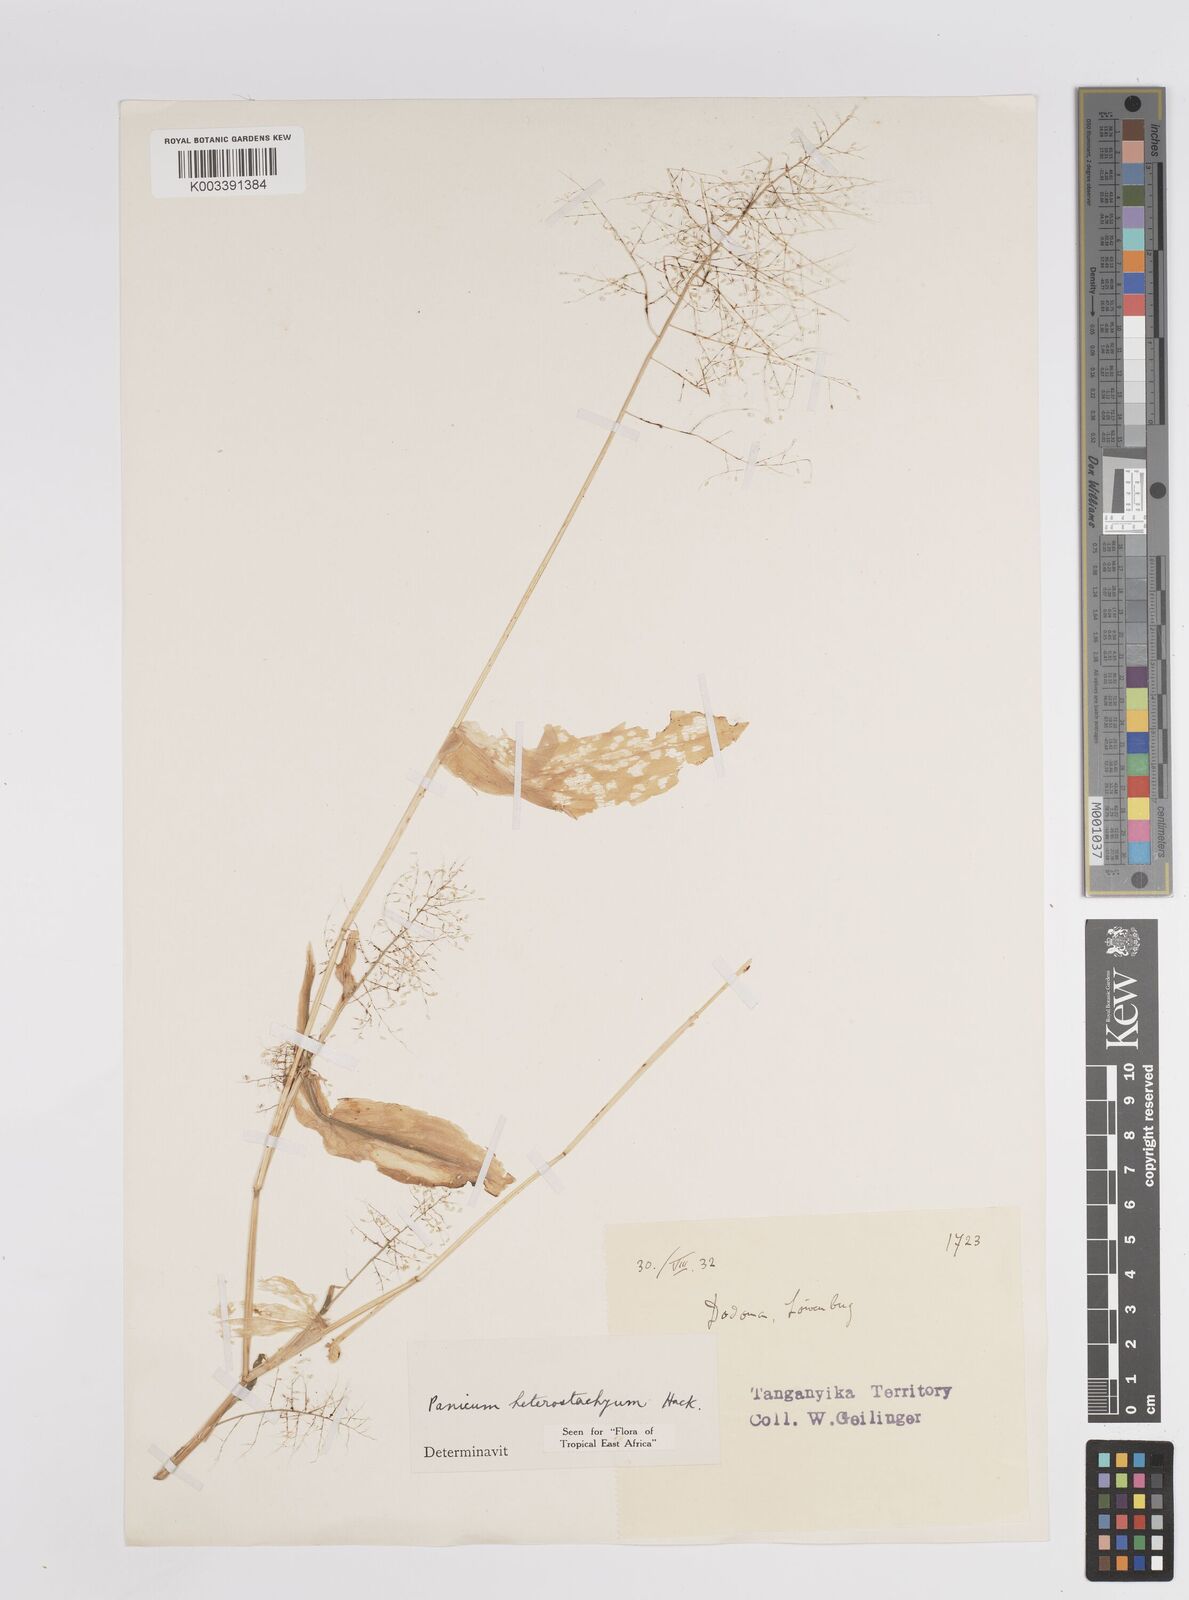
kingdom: Plantae
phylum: Tracheophyta
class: Liliopsida
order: Poales
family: Poaceae
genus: Panicum
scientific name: Panicum hirtum
